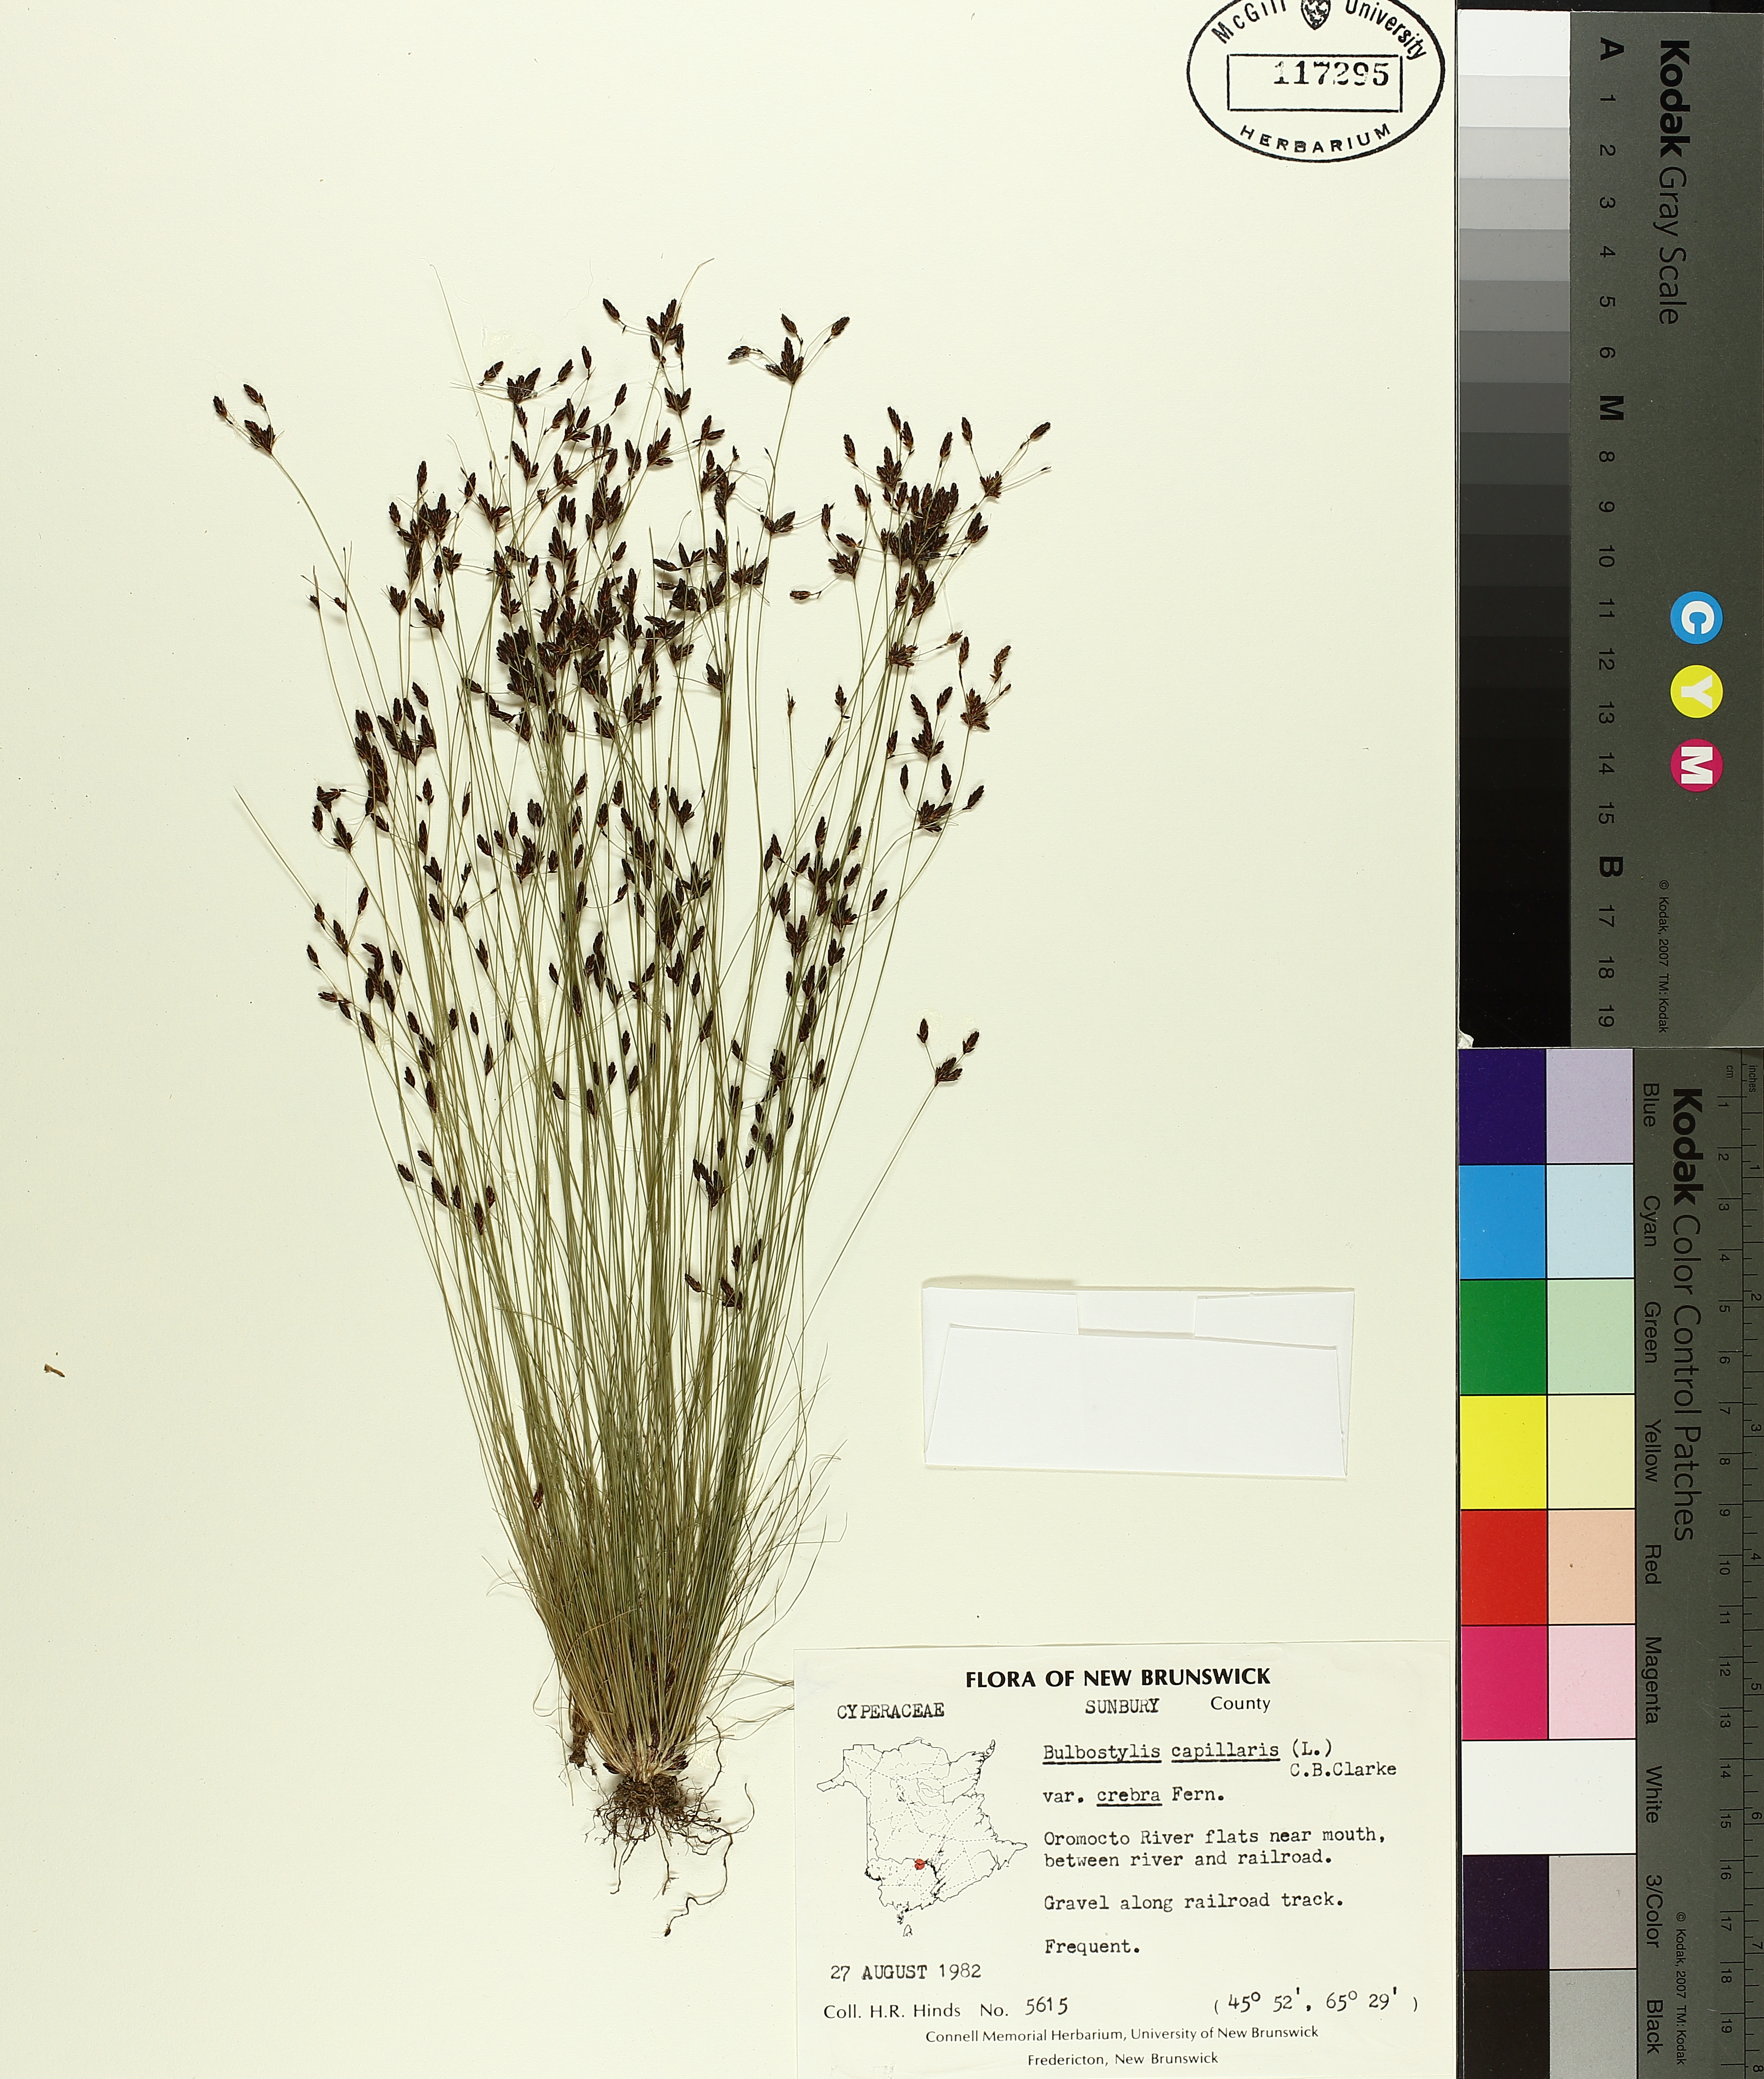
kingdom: Plantae
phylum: Tracheophyta
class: Liliopsida
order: Poales
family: Cyperaceae
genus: Bulbostylis
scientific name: Bulbostylis capillaris
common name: Densetuft hairsedge
